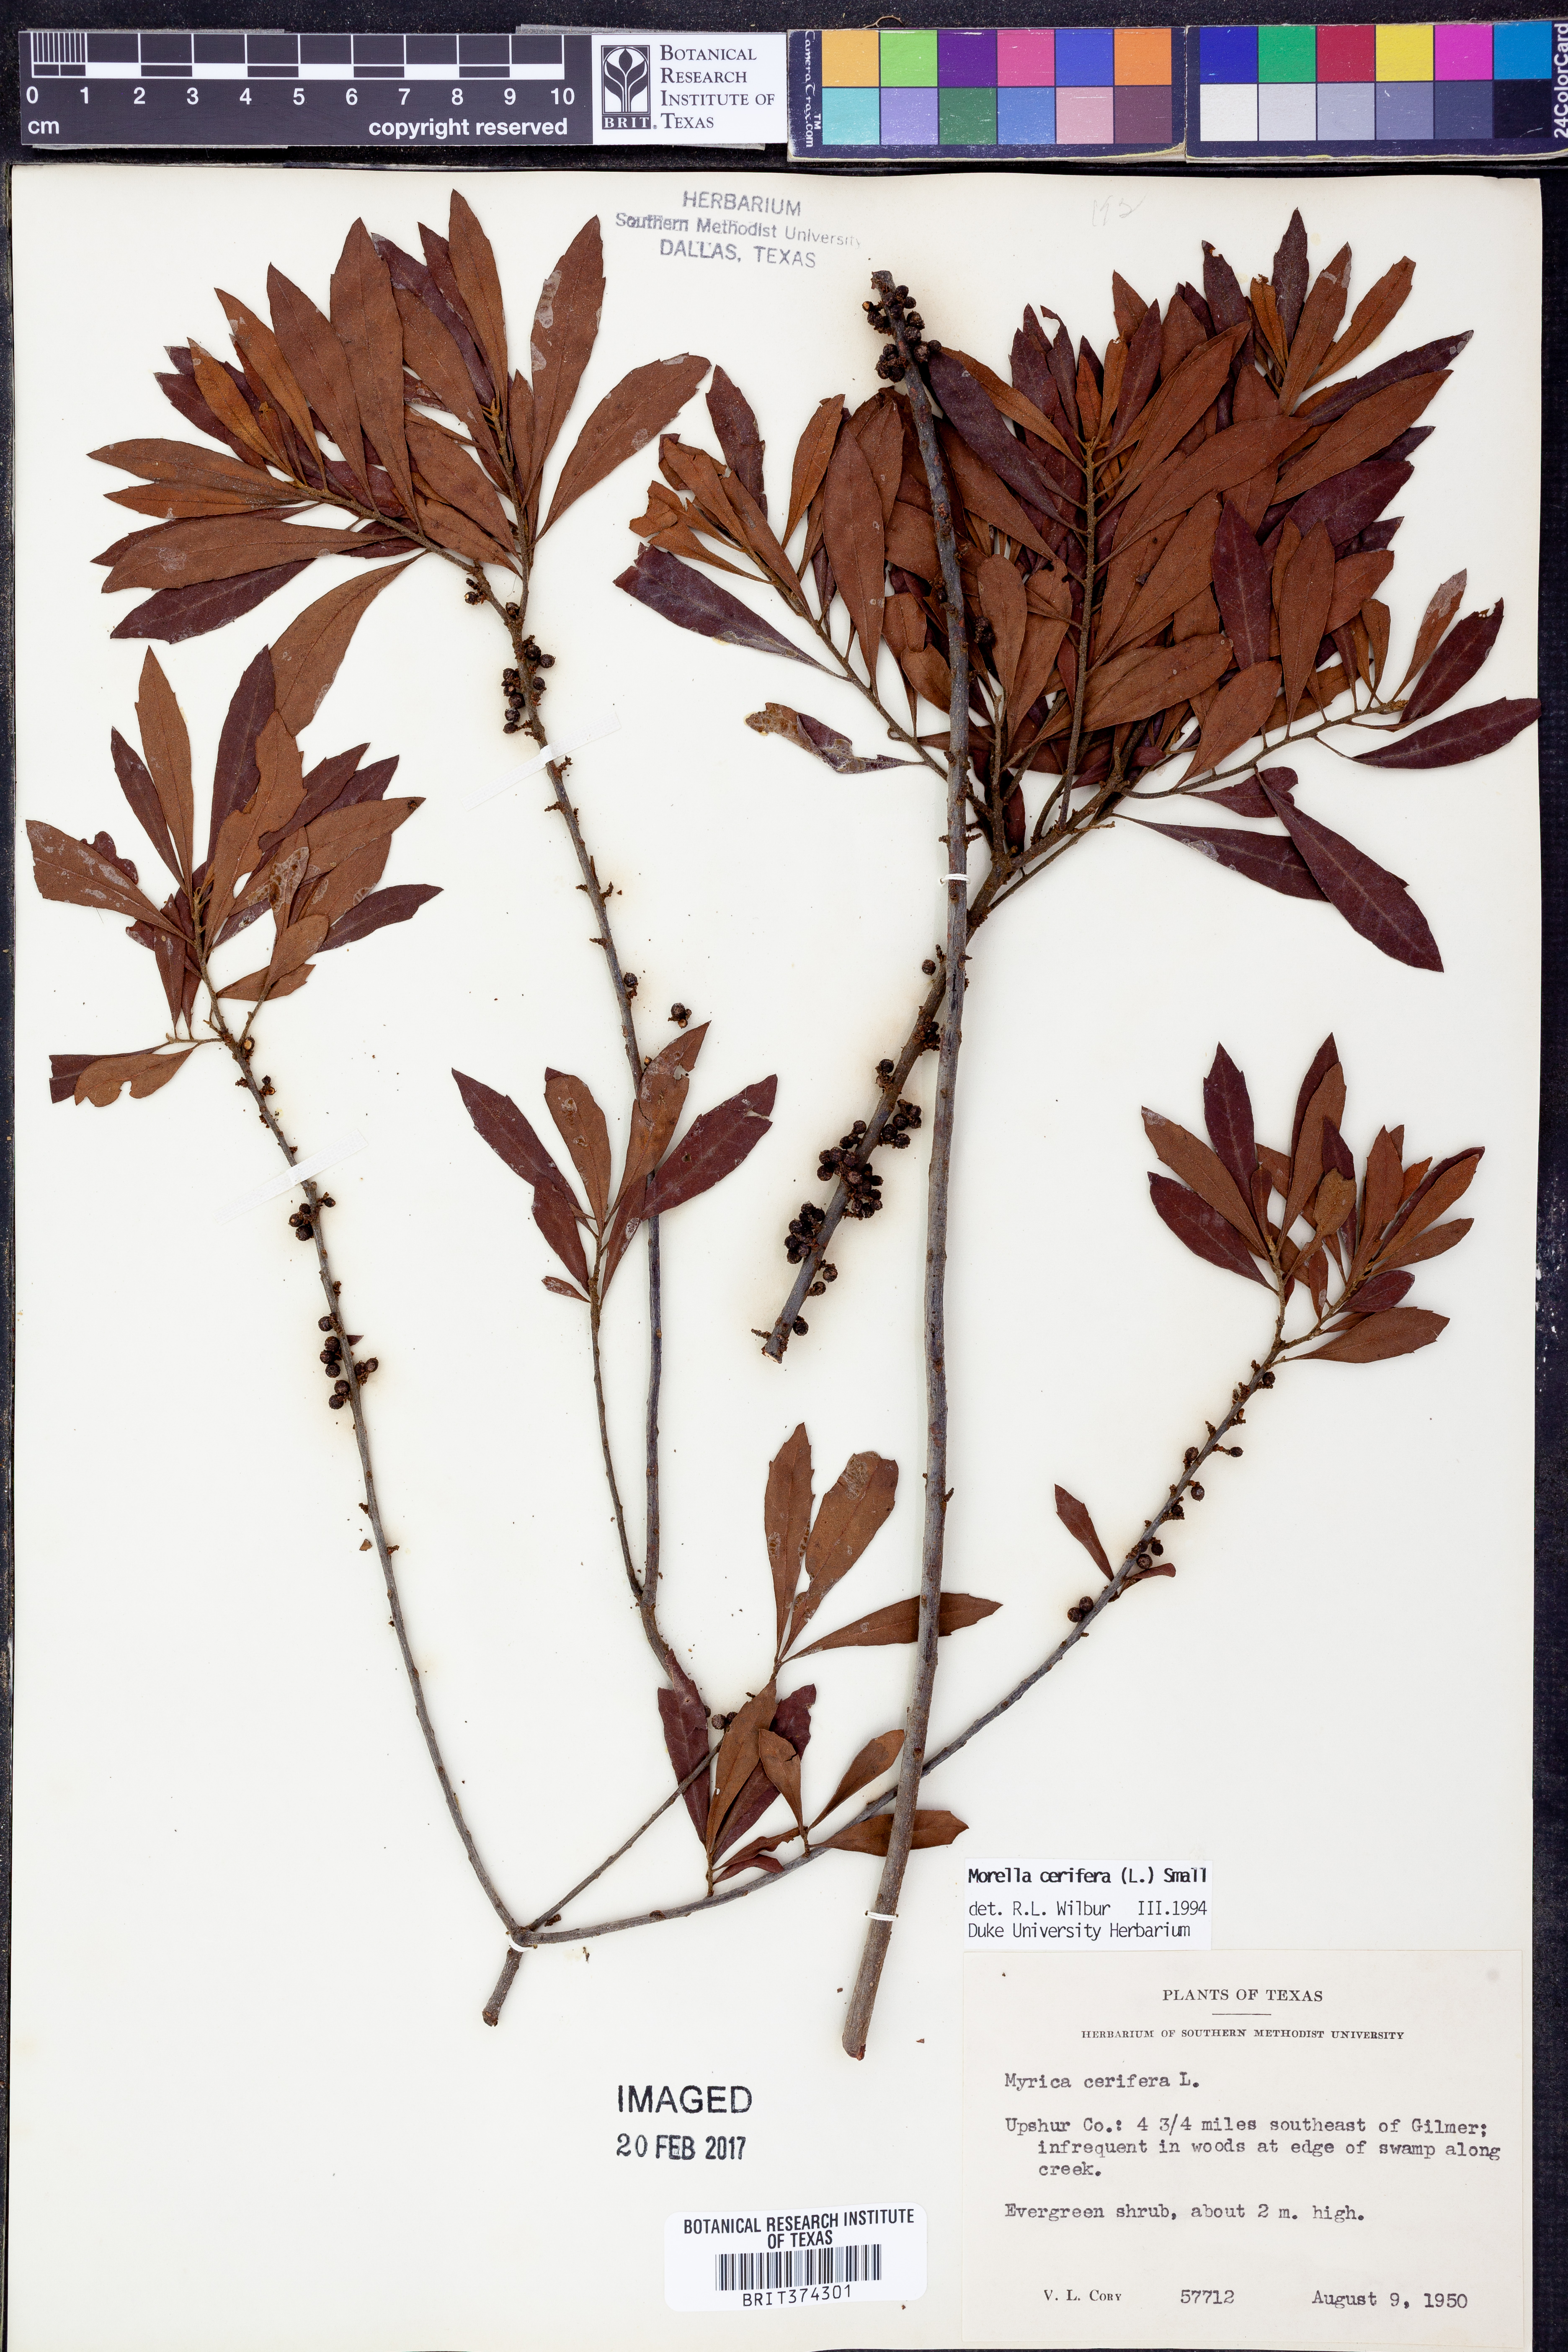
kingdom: Plantae
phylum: Tracheophyta
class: Magnoliopsida
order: Fagales
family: Myricaceae
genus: Morella
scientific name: Morella cerifera
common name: Wax myrtle
